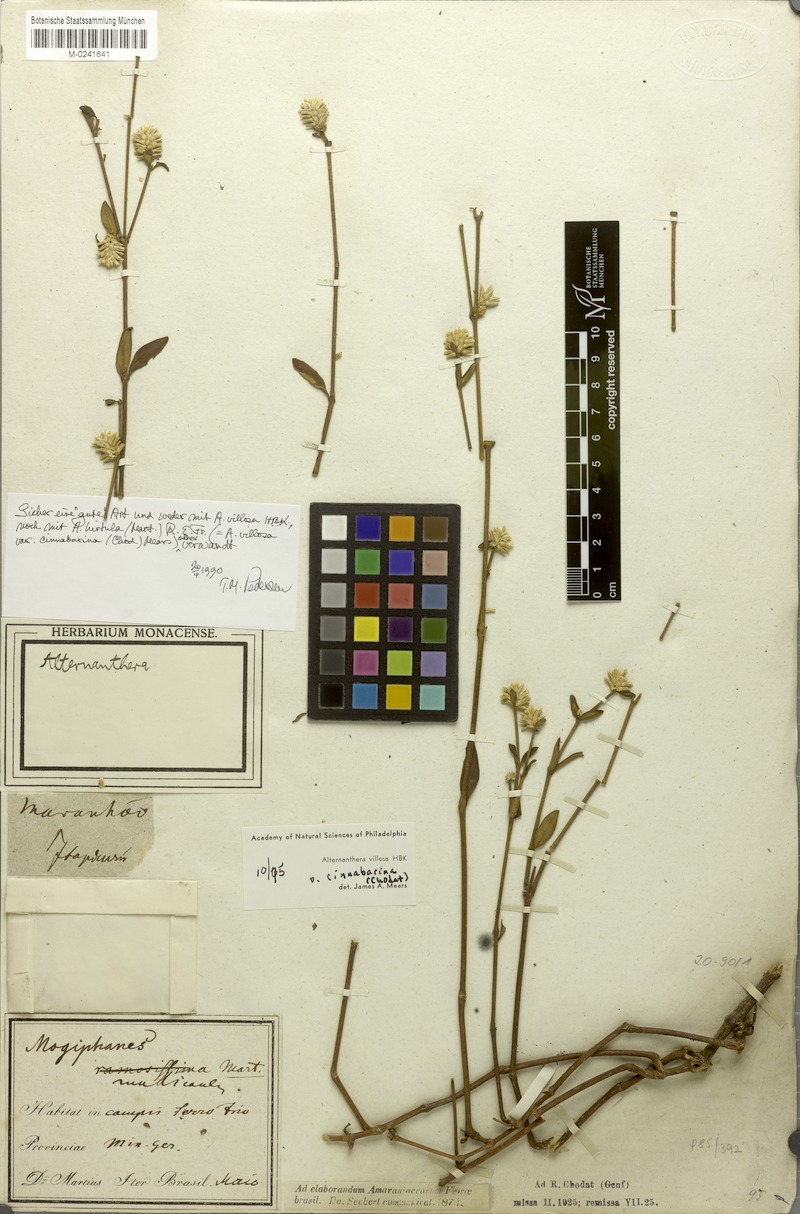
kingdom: Plantae
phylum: Tracheophyta
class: Magnoliopsida
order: Caryophyllales
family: Amaranthaceae
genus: Alternanthera
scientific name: Alternanthera multicaulis
